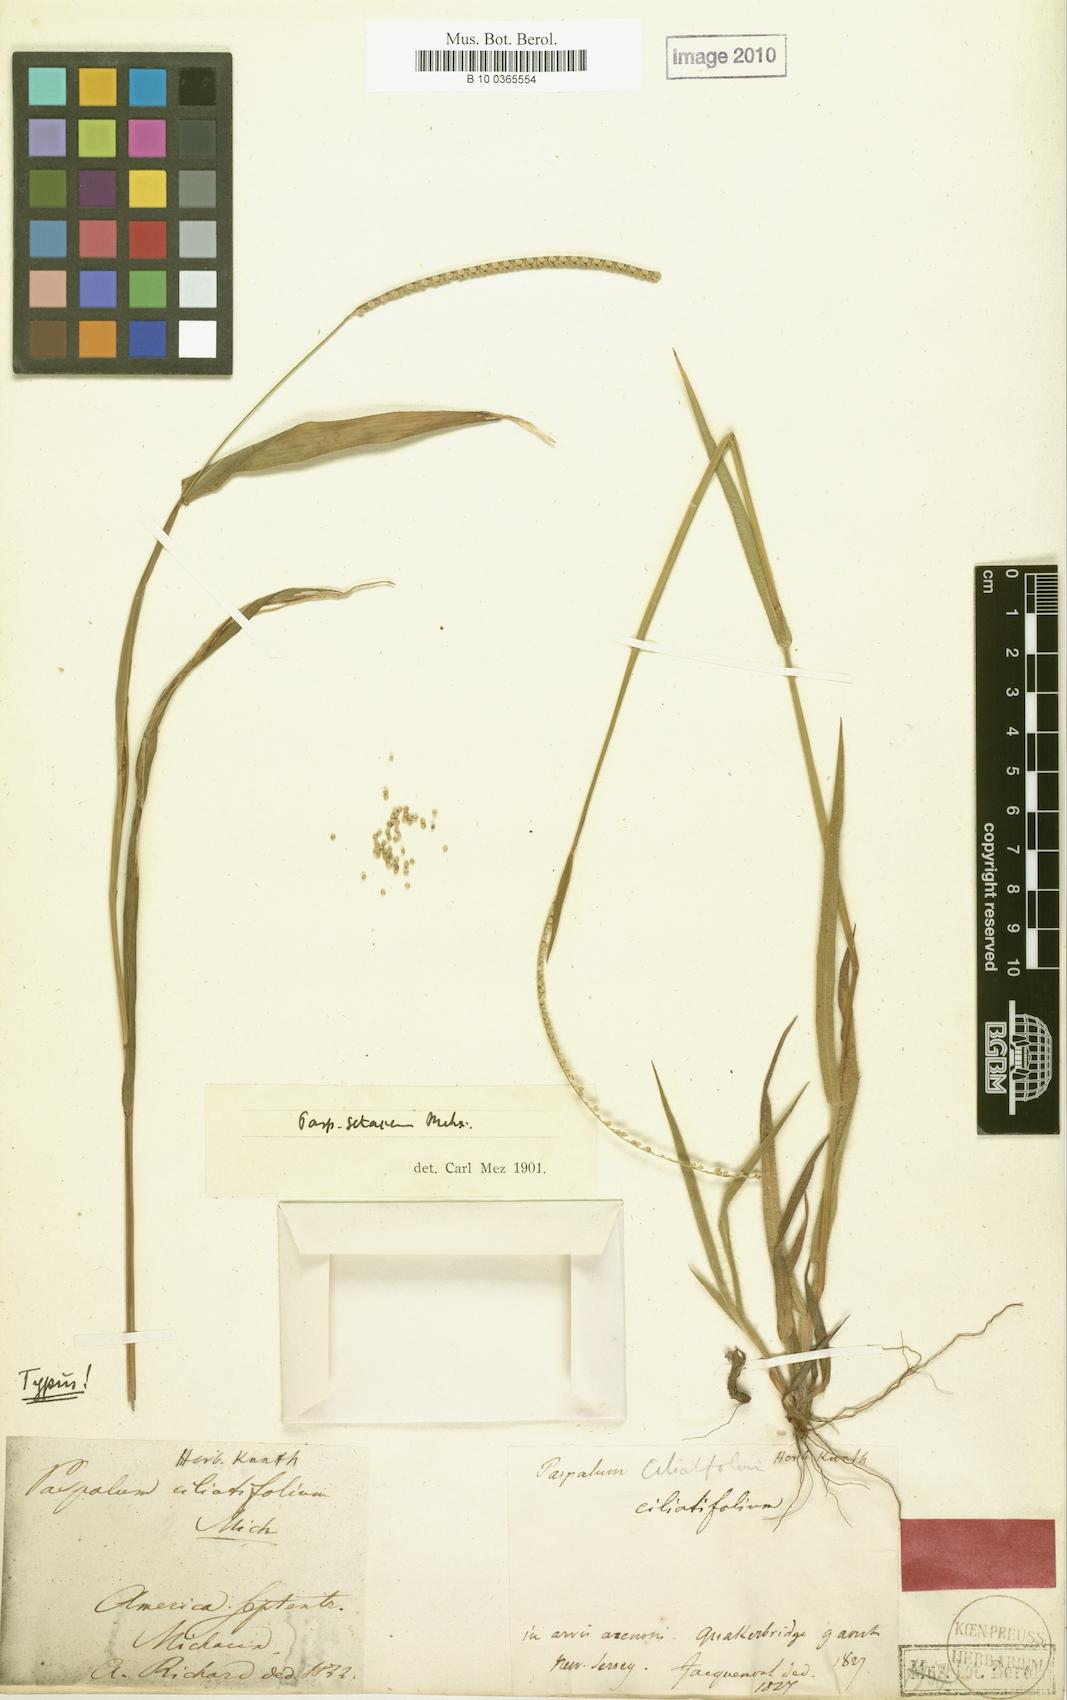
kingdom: Plantae
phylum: Tracheophyta
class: Liliopsida
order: Poales
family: Poaceae
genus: Paspalum
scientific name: Paspalum setaceum
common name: Slender paspalum
